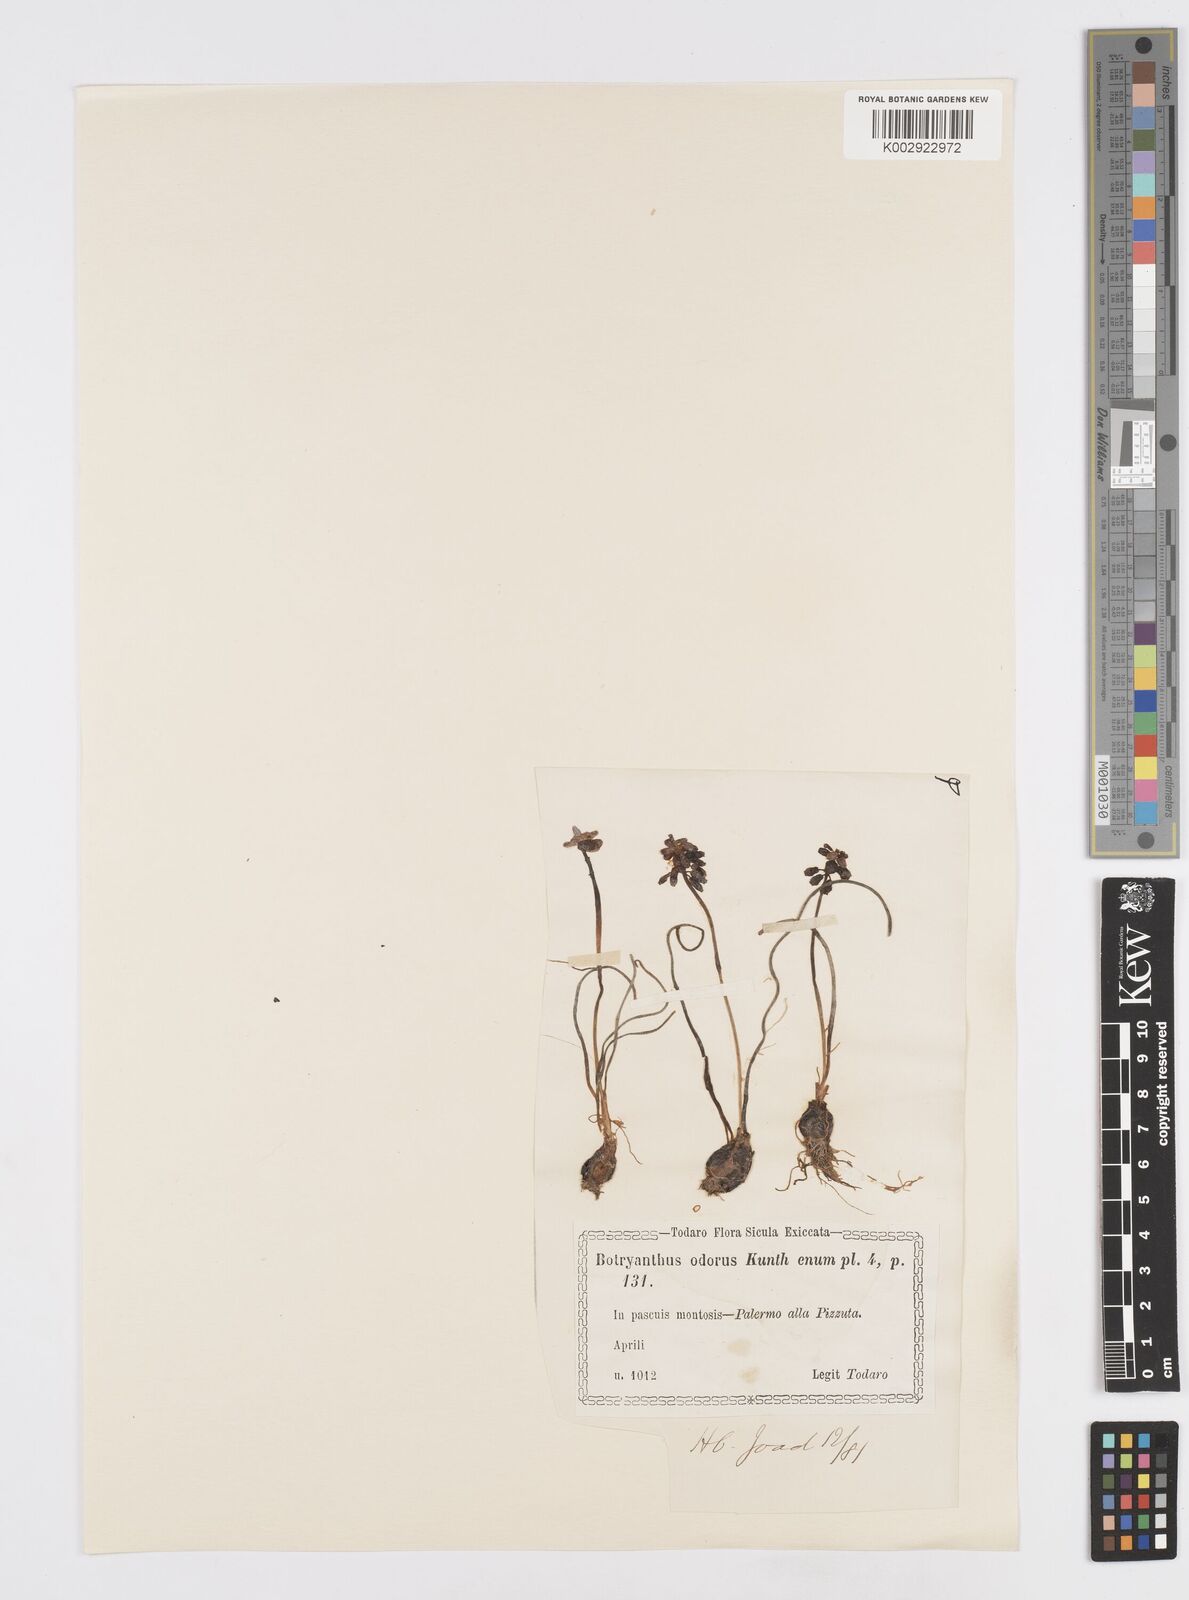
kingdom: Plantae
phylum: Tracheophyta
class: Liliopsida
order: Asparagales
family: Asparagaceae
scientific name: Asparagaceae
